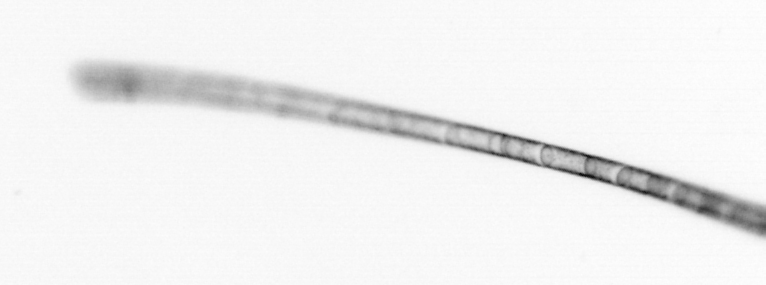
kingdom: Chromista
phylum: Ochrophyta
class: Bacillariophyceae
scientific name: Bacillariophyceae
